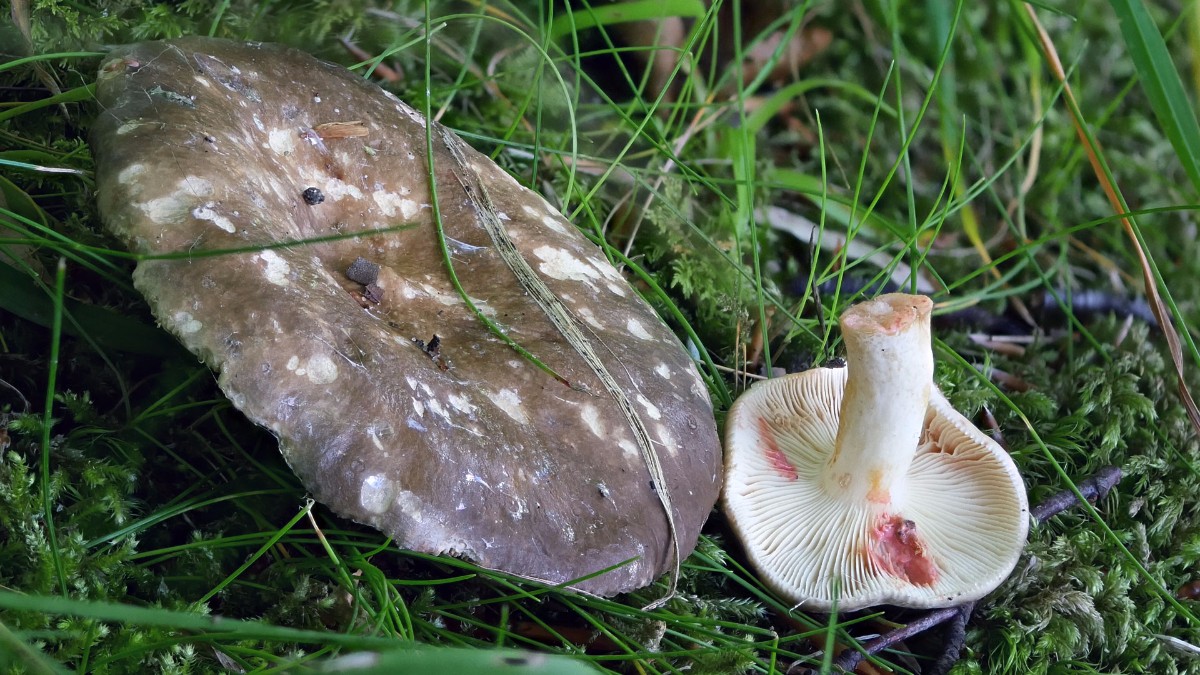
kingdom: Fungi
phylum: Basidiomycota
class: Agaricomycetes
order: Russulales
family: Russulaceae
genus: Lactarius
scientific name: Lactarius acris
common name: rosamælket mælkehat
